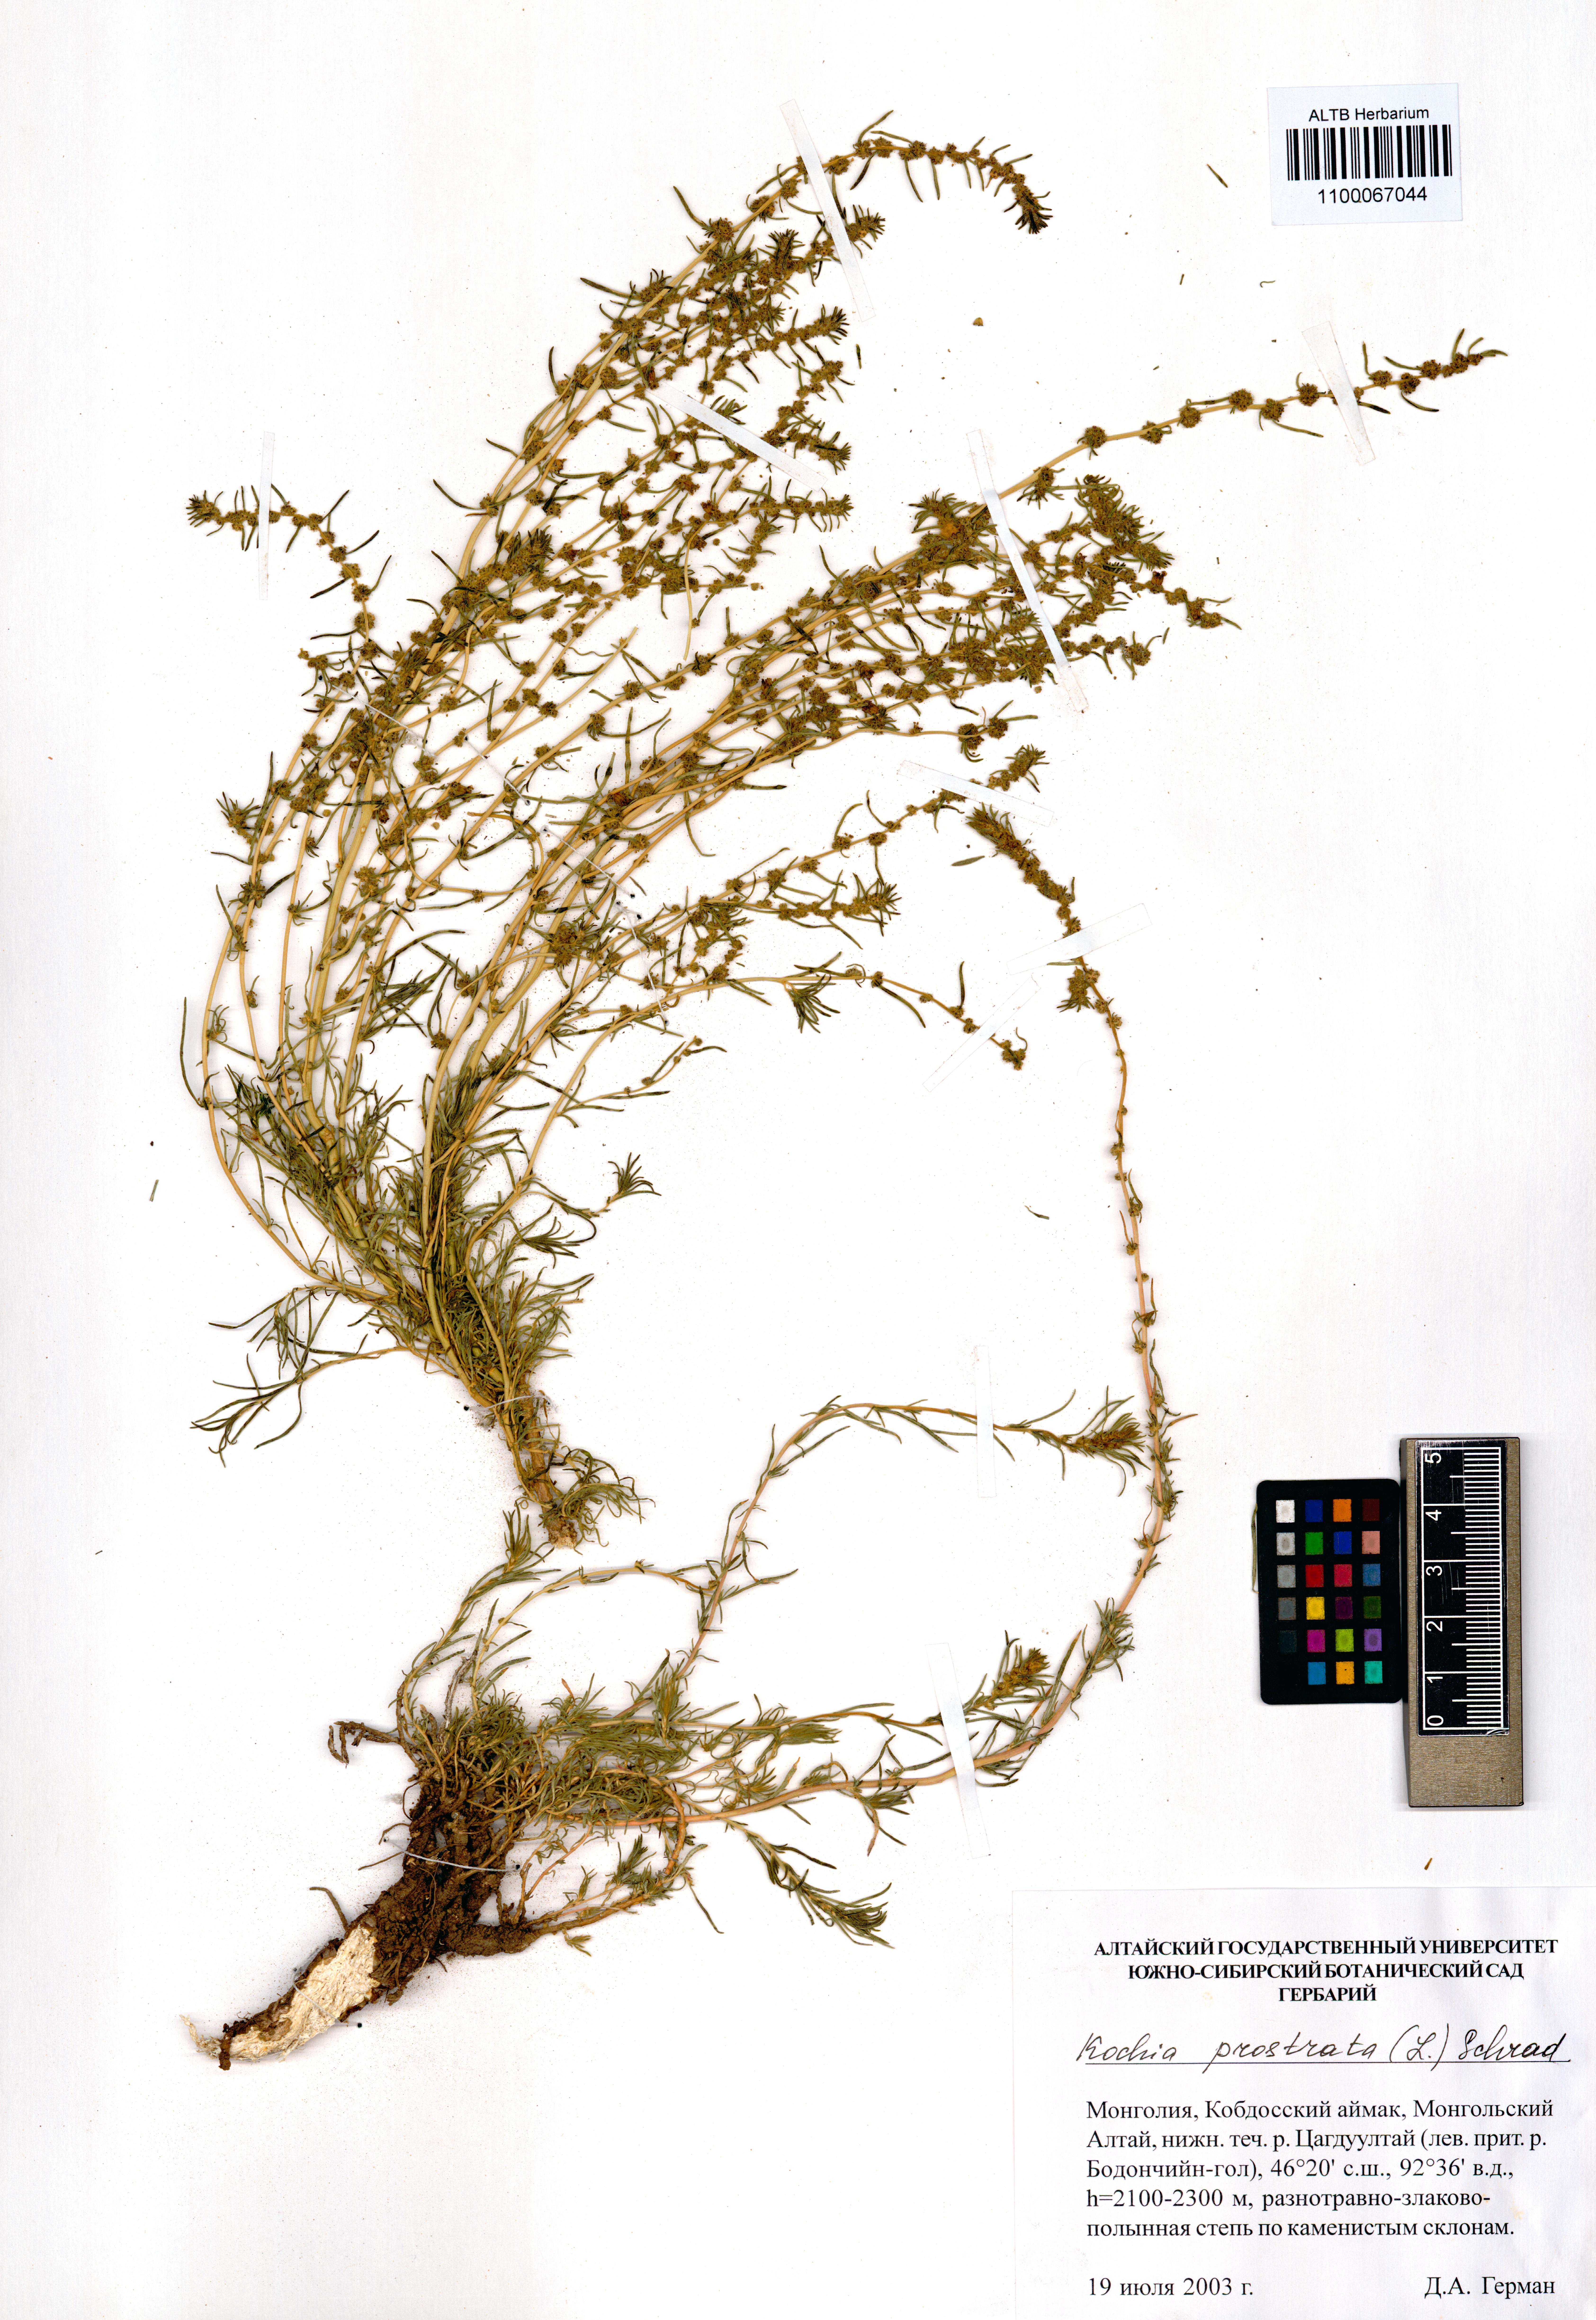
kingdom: Plantae
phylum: Tracheophyta
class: Magnoliopsida
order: Caryophyllales
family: Amaranthaceae
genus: Bassia
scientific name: Bassia prostrata
